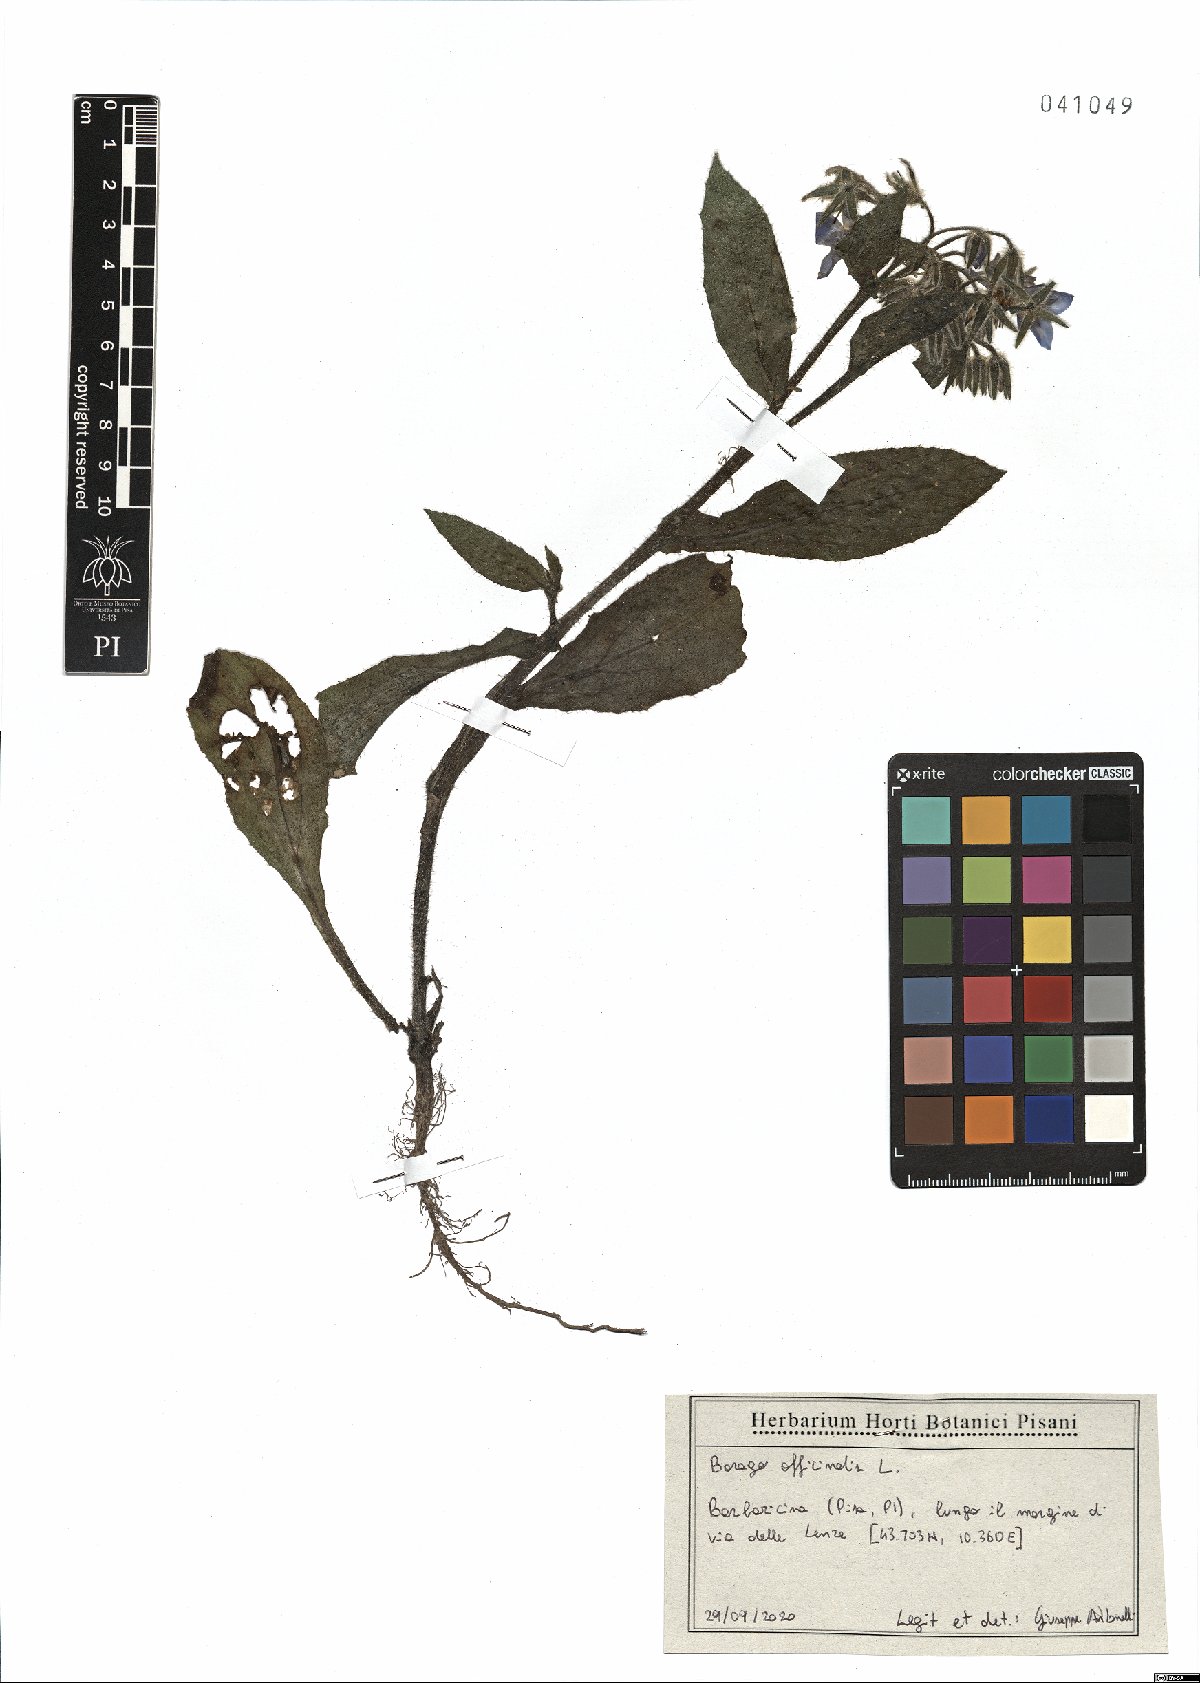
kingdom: Plantae
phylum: Tracheophyta
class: Magnoliopsida
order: Boraginales
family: Boraginaceae
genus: Borago
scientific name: Borago officinalis
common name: Borage
